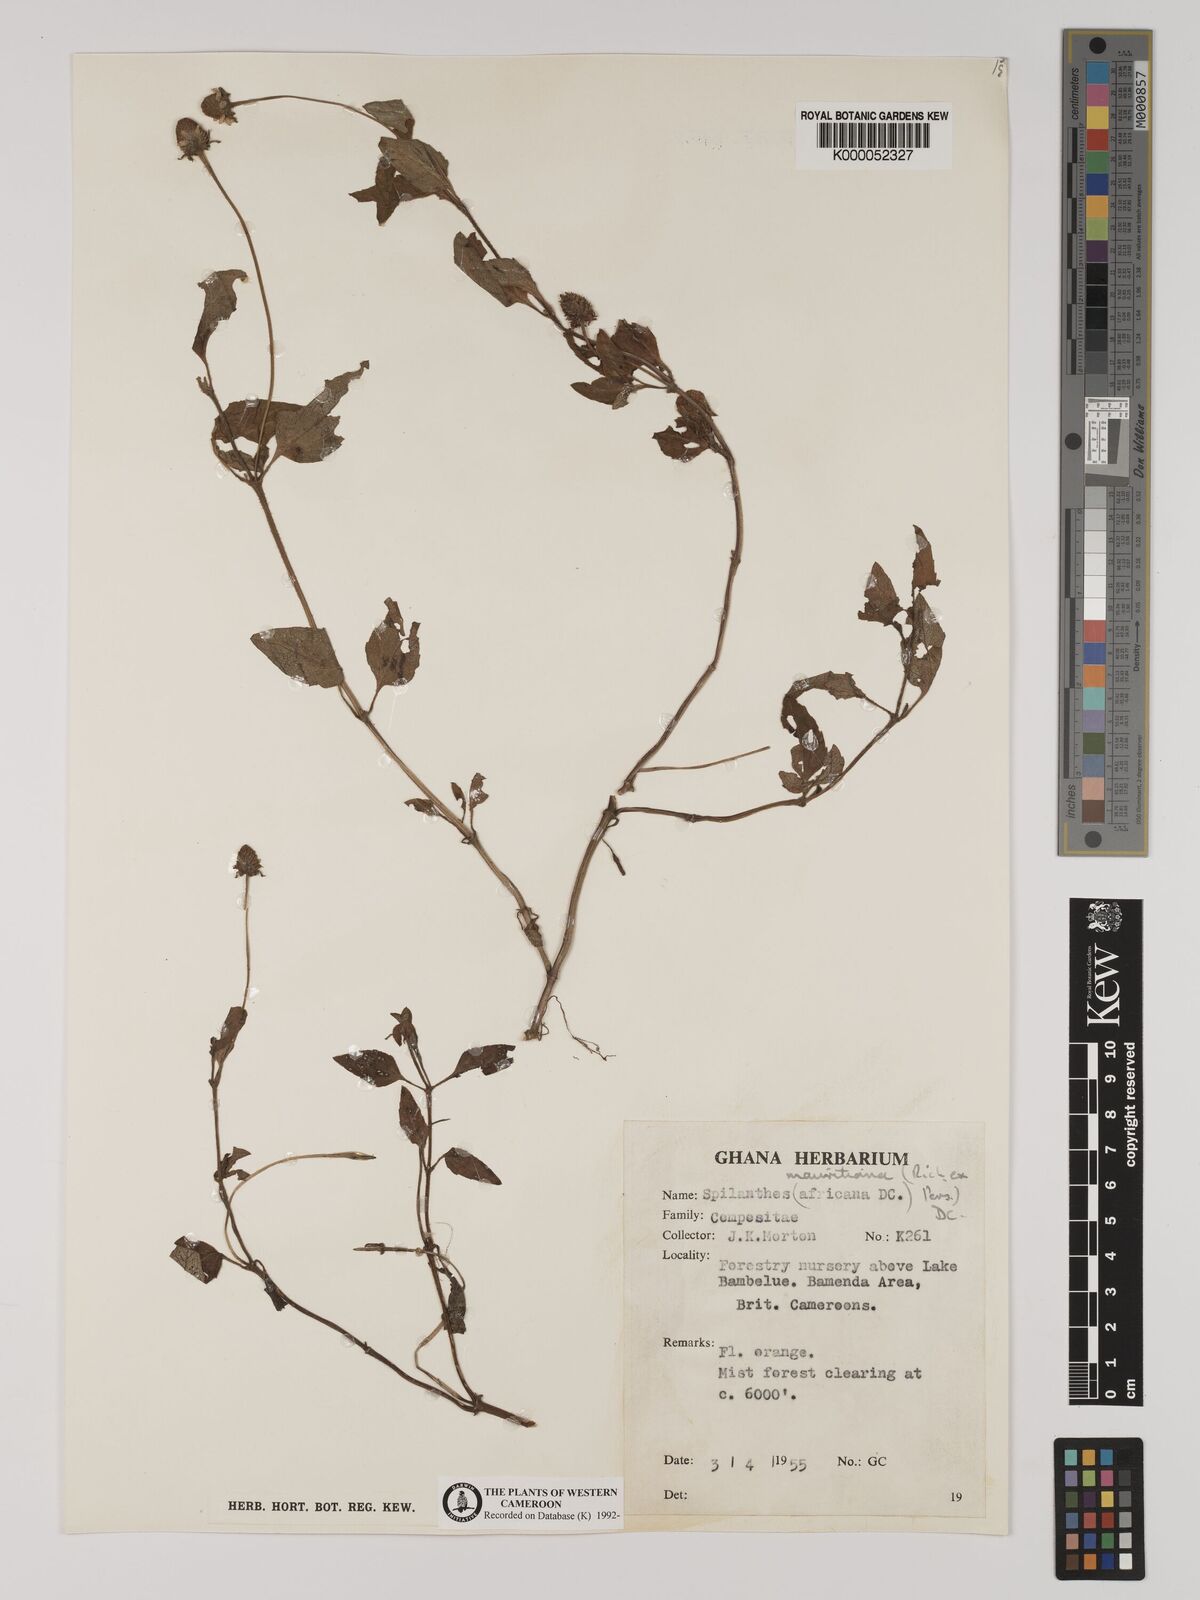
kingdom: Plantae
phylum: Tracheophyta
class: Magnoliopsida
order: Asterales
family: Asteraceae
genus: Acmella
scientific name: Acmella caulirhiza
